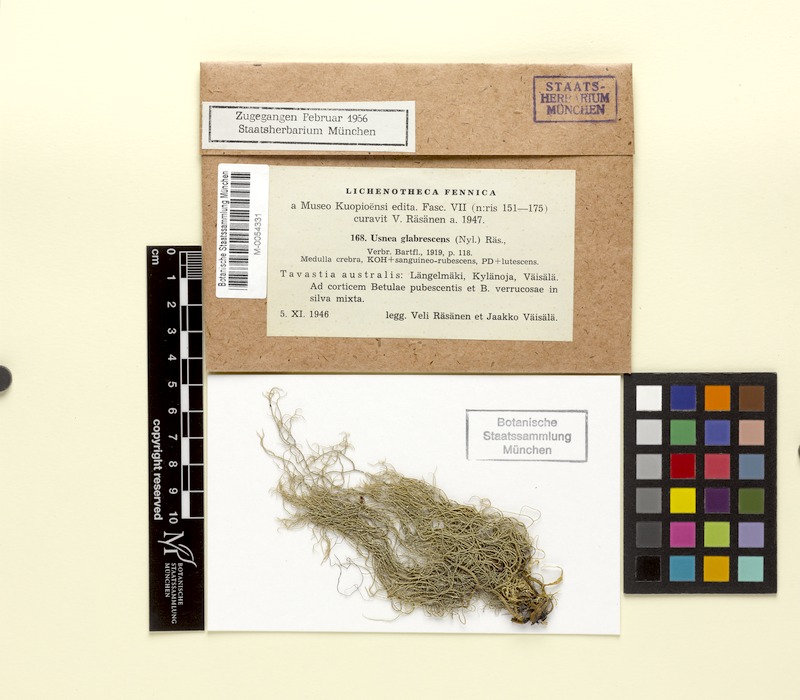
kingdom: Fungi
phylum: Ascomycota
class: Lecanoromycetes
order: Lecanorales
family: Parmeliaceae
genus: Usnea
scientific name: Usnea glabrescens
